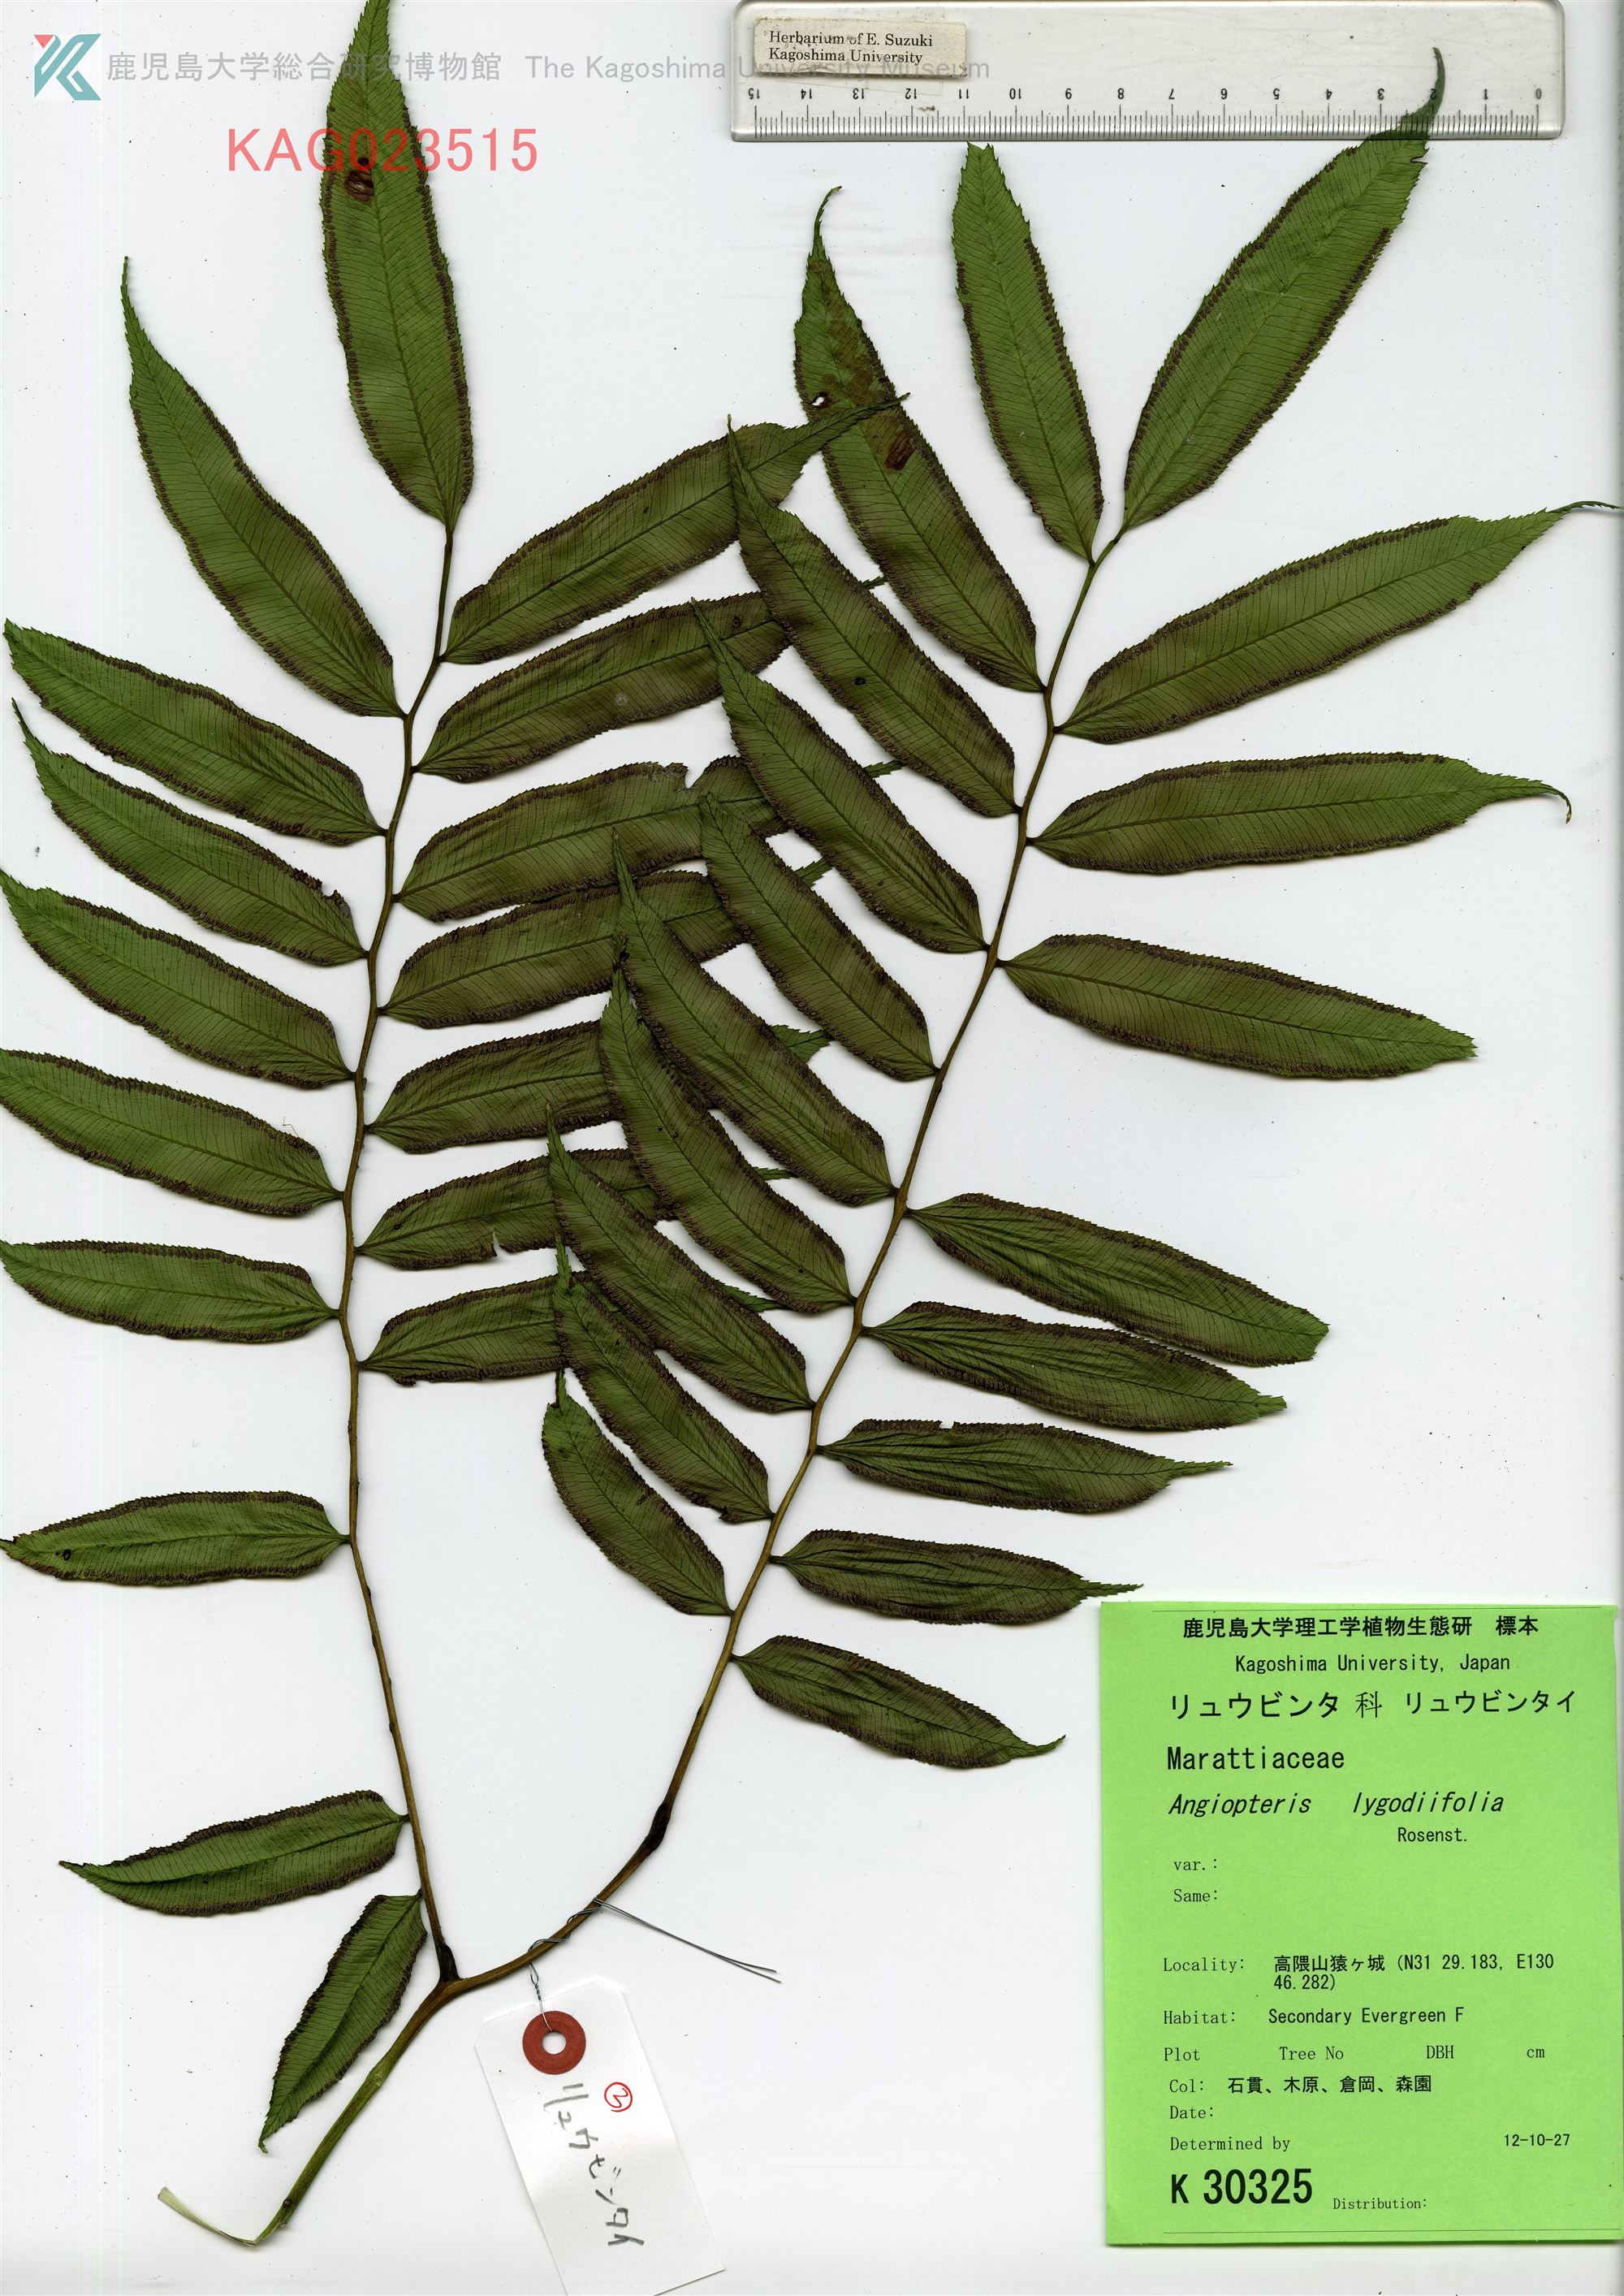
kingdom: Plantae
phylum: Tracheophyta
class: Polypodiopsida
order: Marattiales
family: Marattiaceae
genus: Angiopteris
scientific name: Angiopteris lygodiifolia
